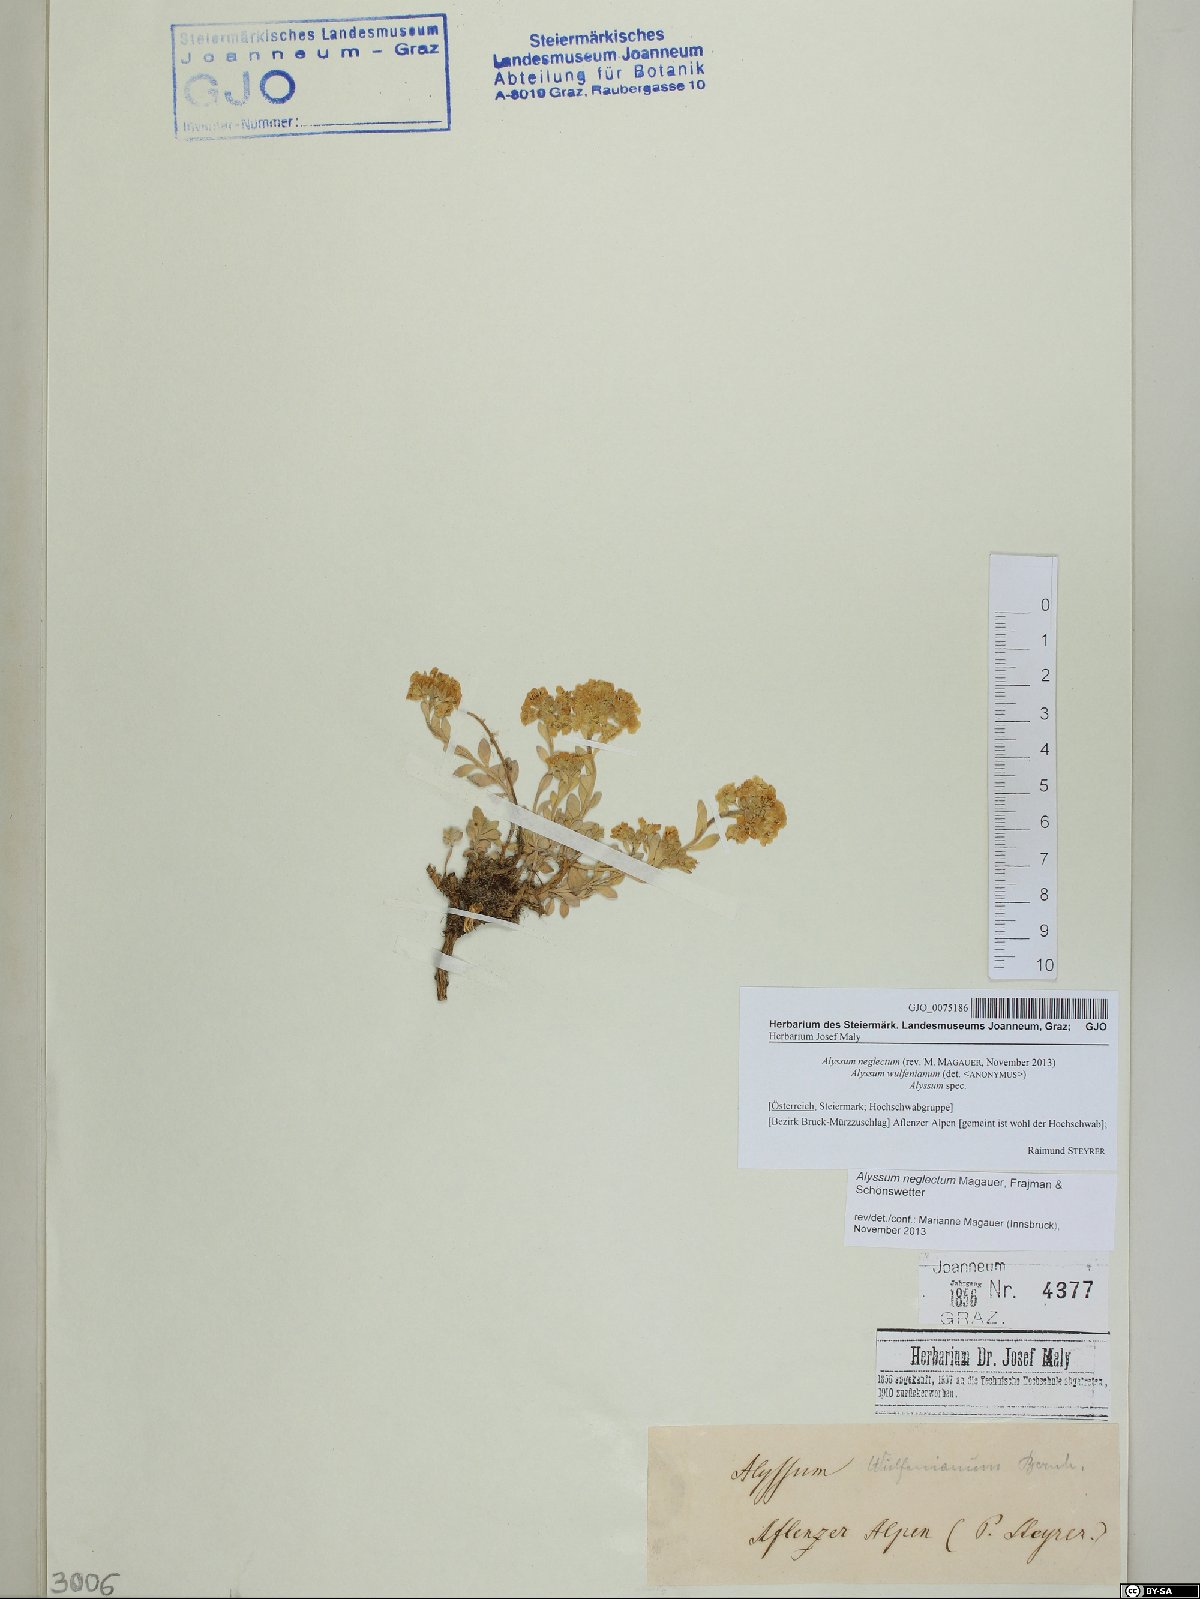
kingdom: Plantae
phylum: Tracheophyta
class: Magnoliopsida
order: Brassicales
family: Brassicaceae
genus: Alyssum
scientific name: Alyssum neglectum
